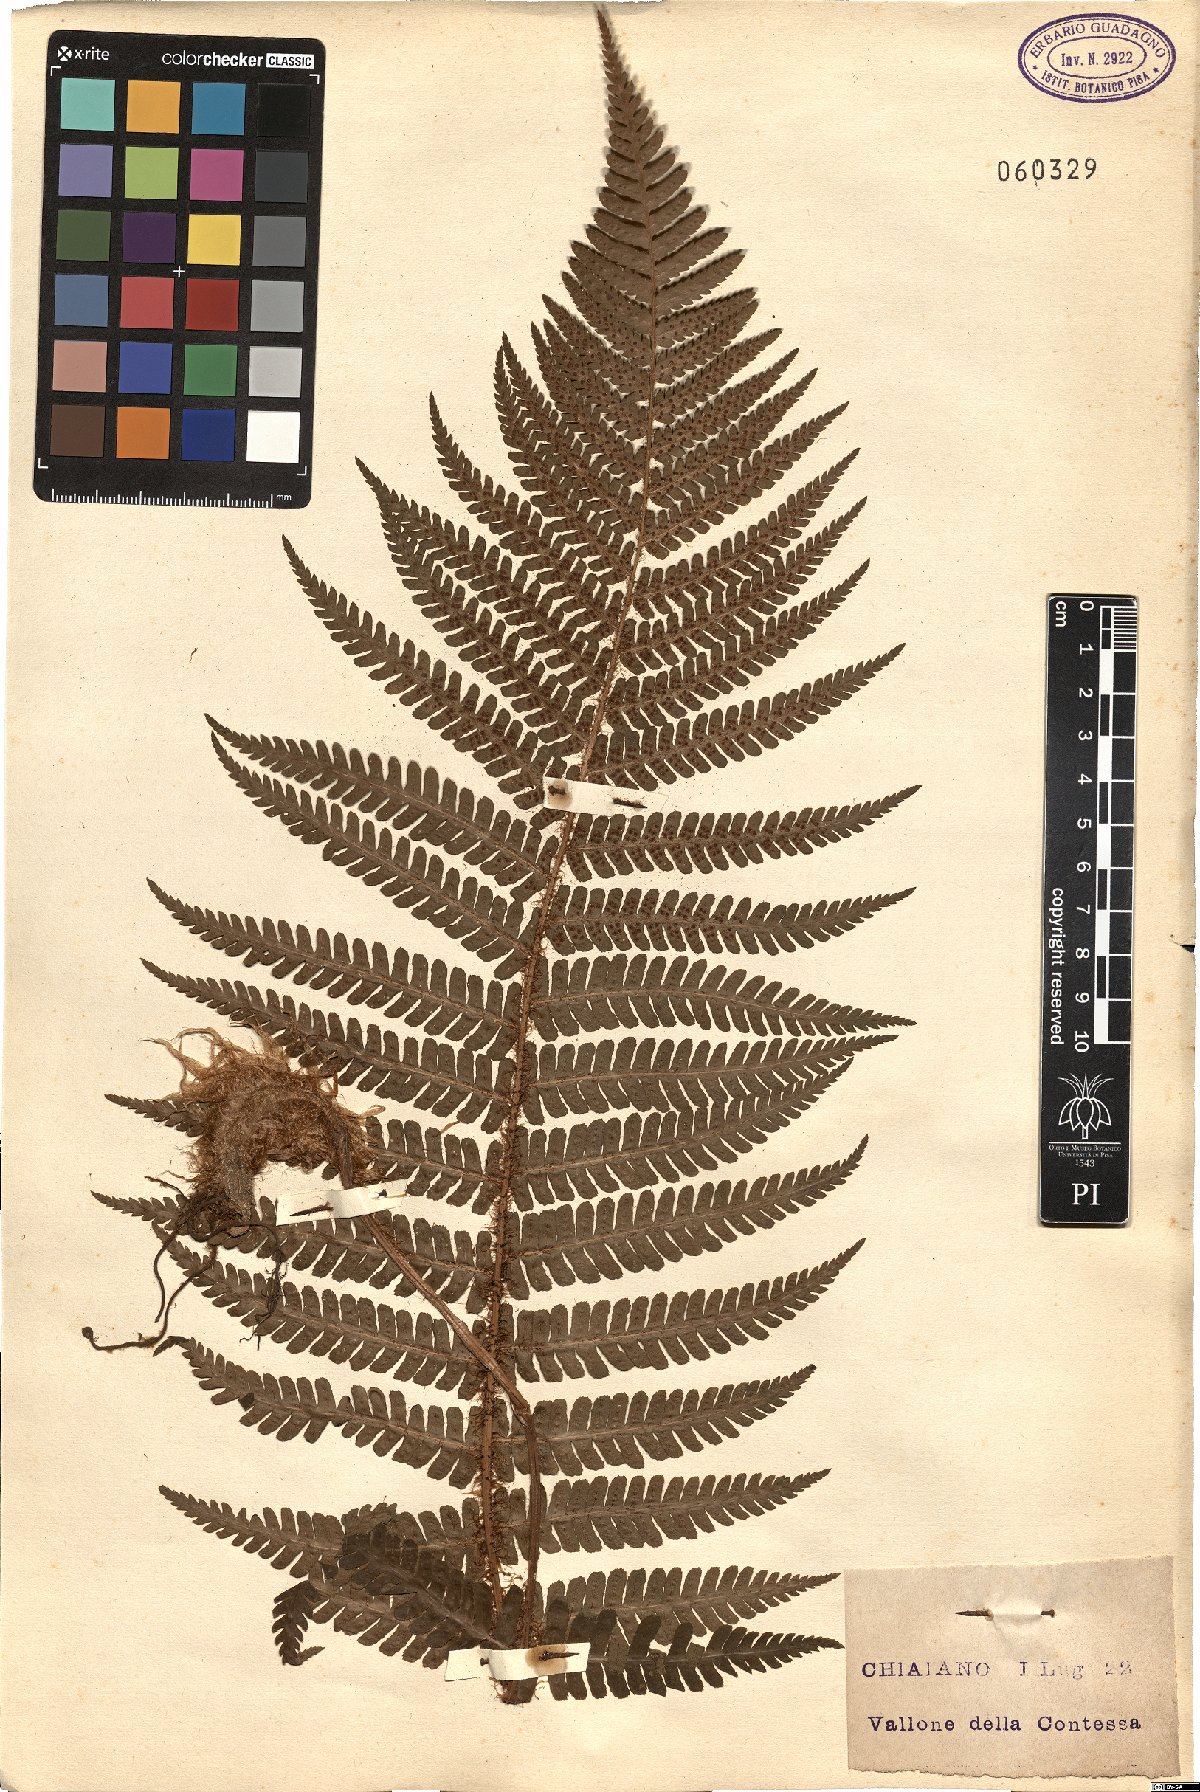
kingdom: Plantae
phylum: Tracheophyta
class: Polypodiopsida
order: Polypodiales
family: Dryopteridaceae
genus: Dryopteris
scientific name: Dryopteris
